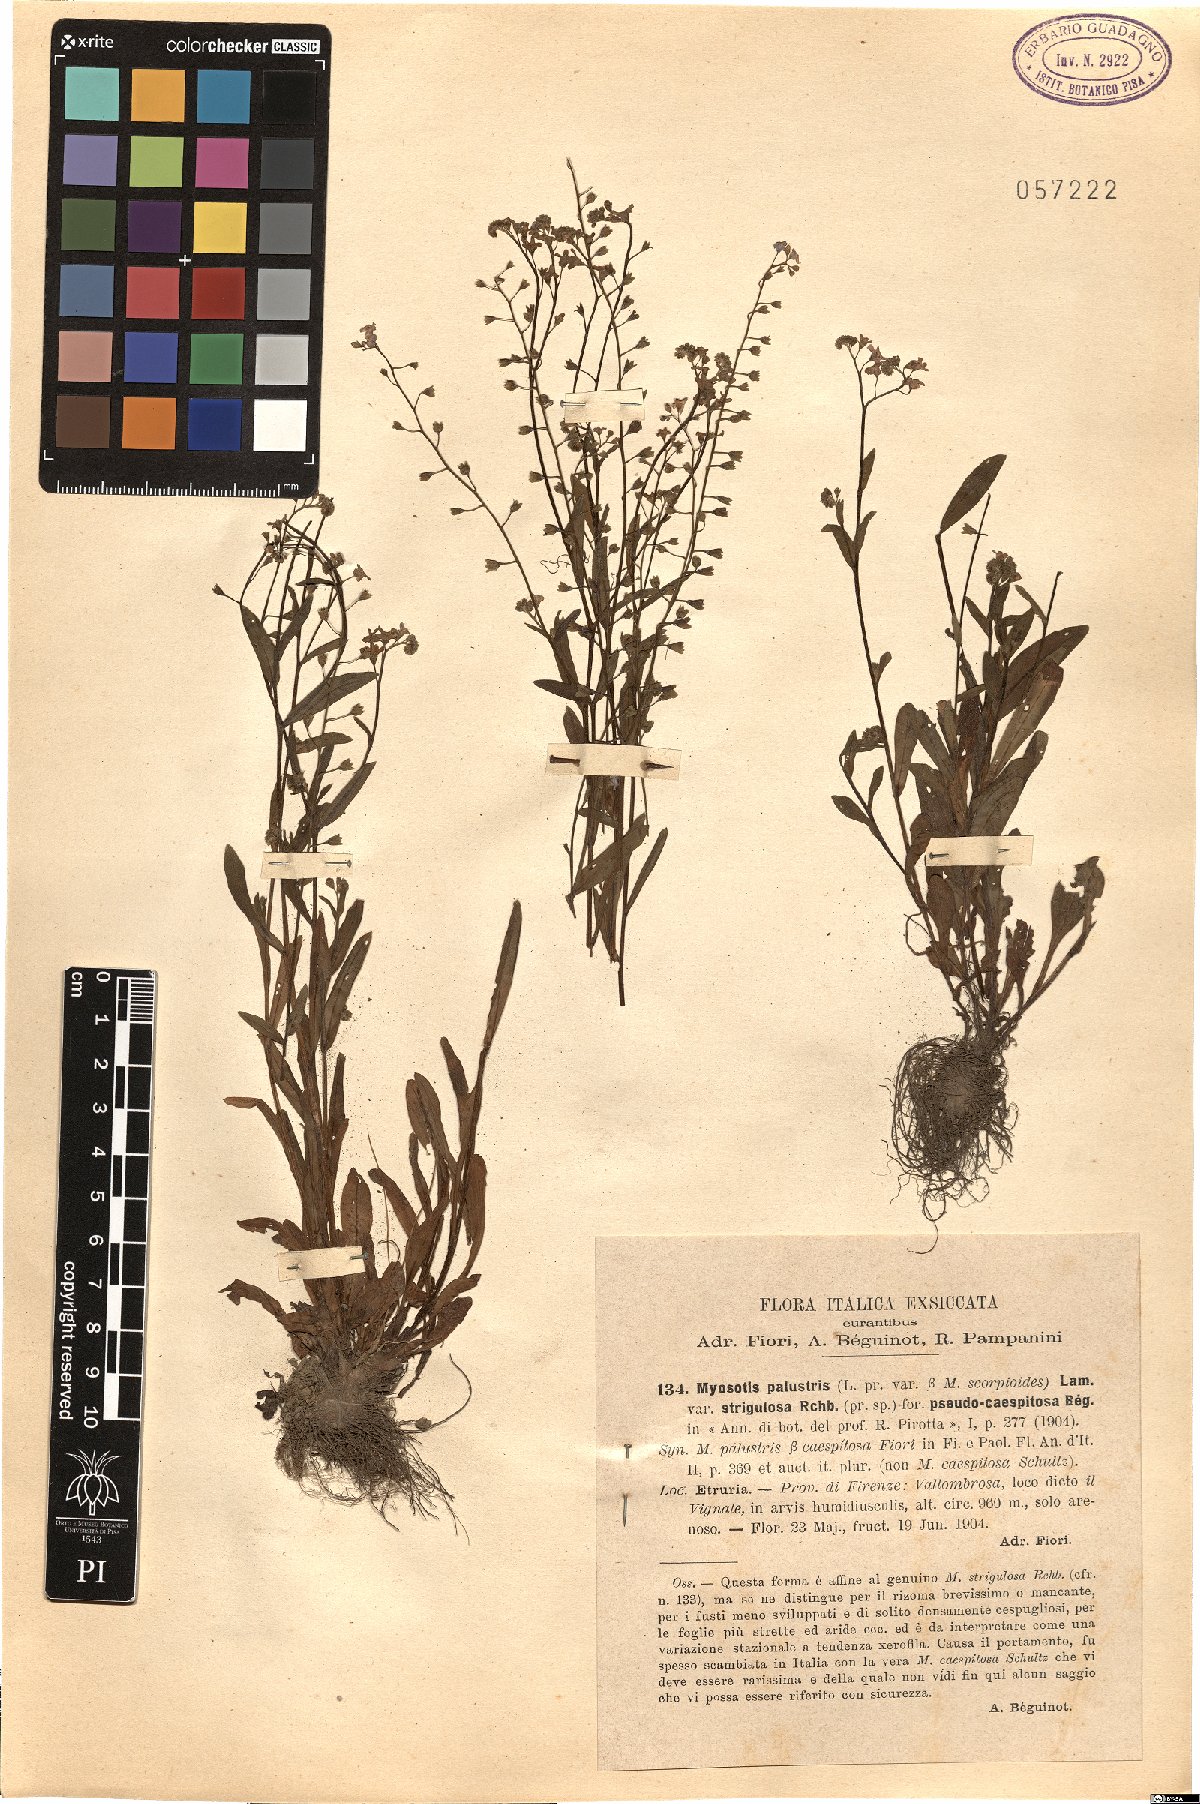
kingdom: Plantae
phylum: Tracheophyta
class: Magnoliopsida
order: Boraginales
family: Boraginaceae
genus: Myosotis
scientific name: Myosotis
